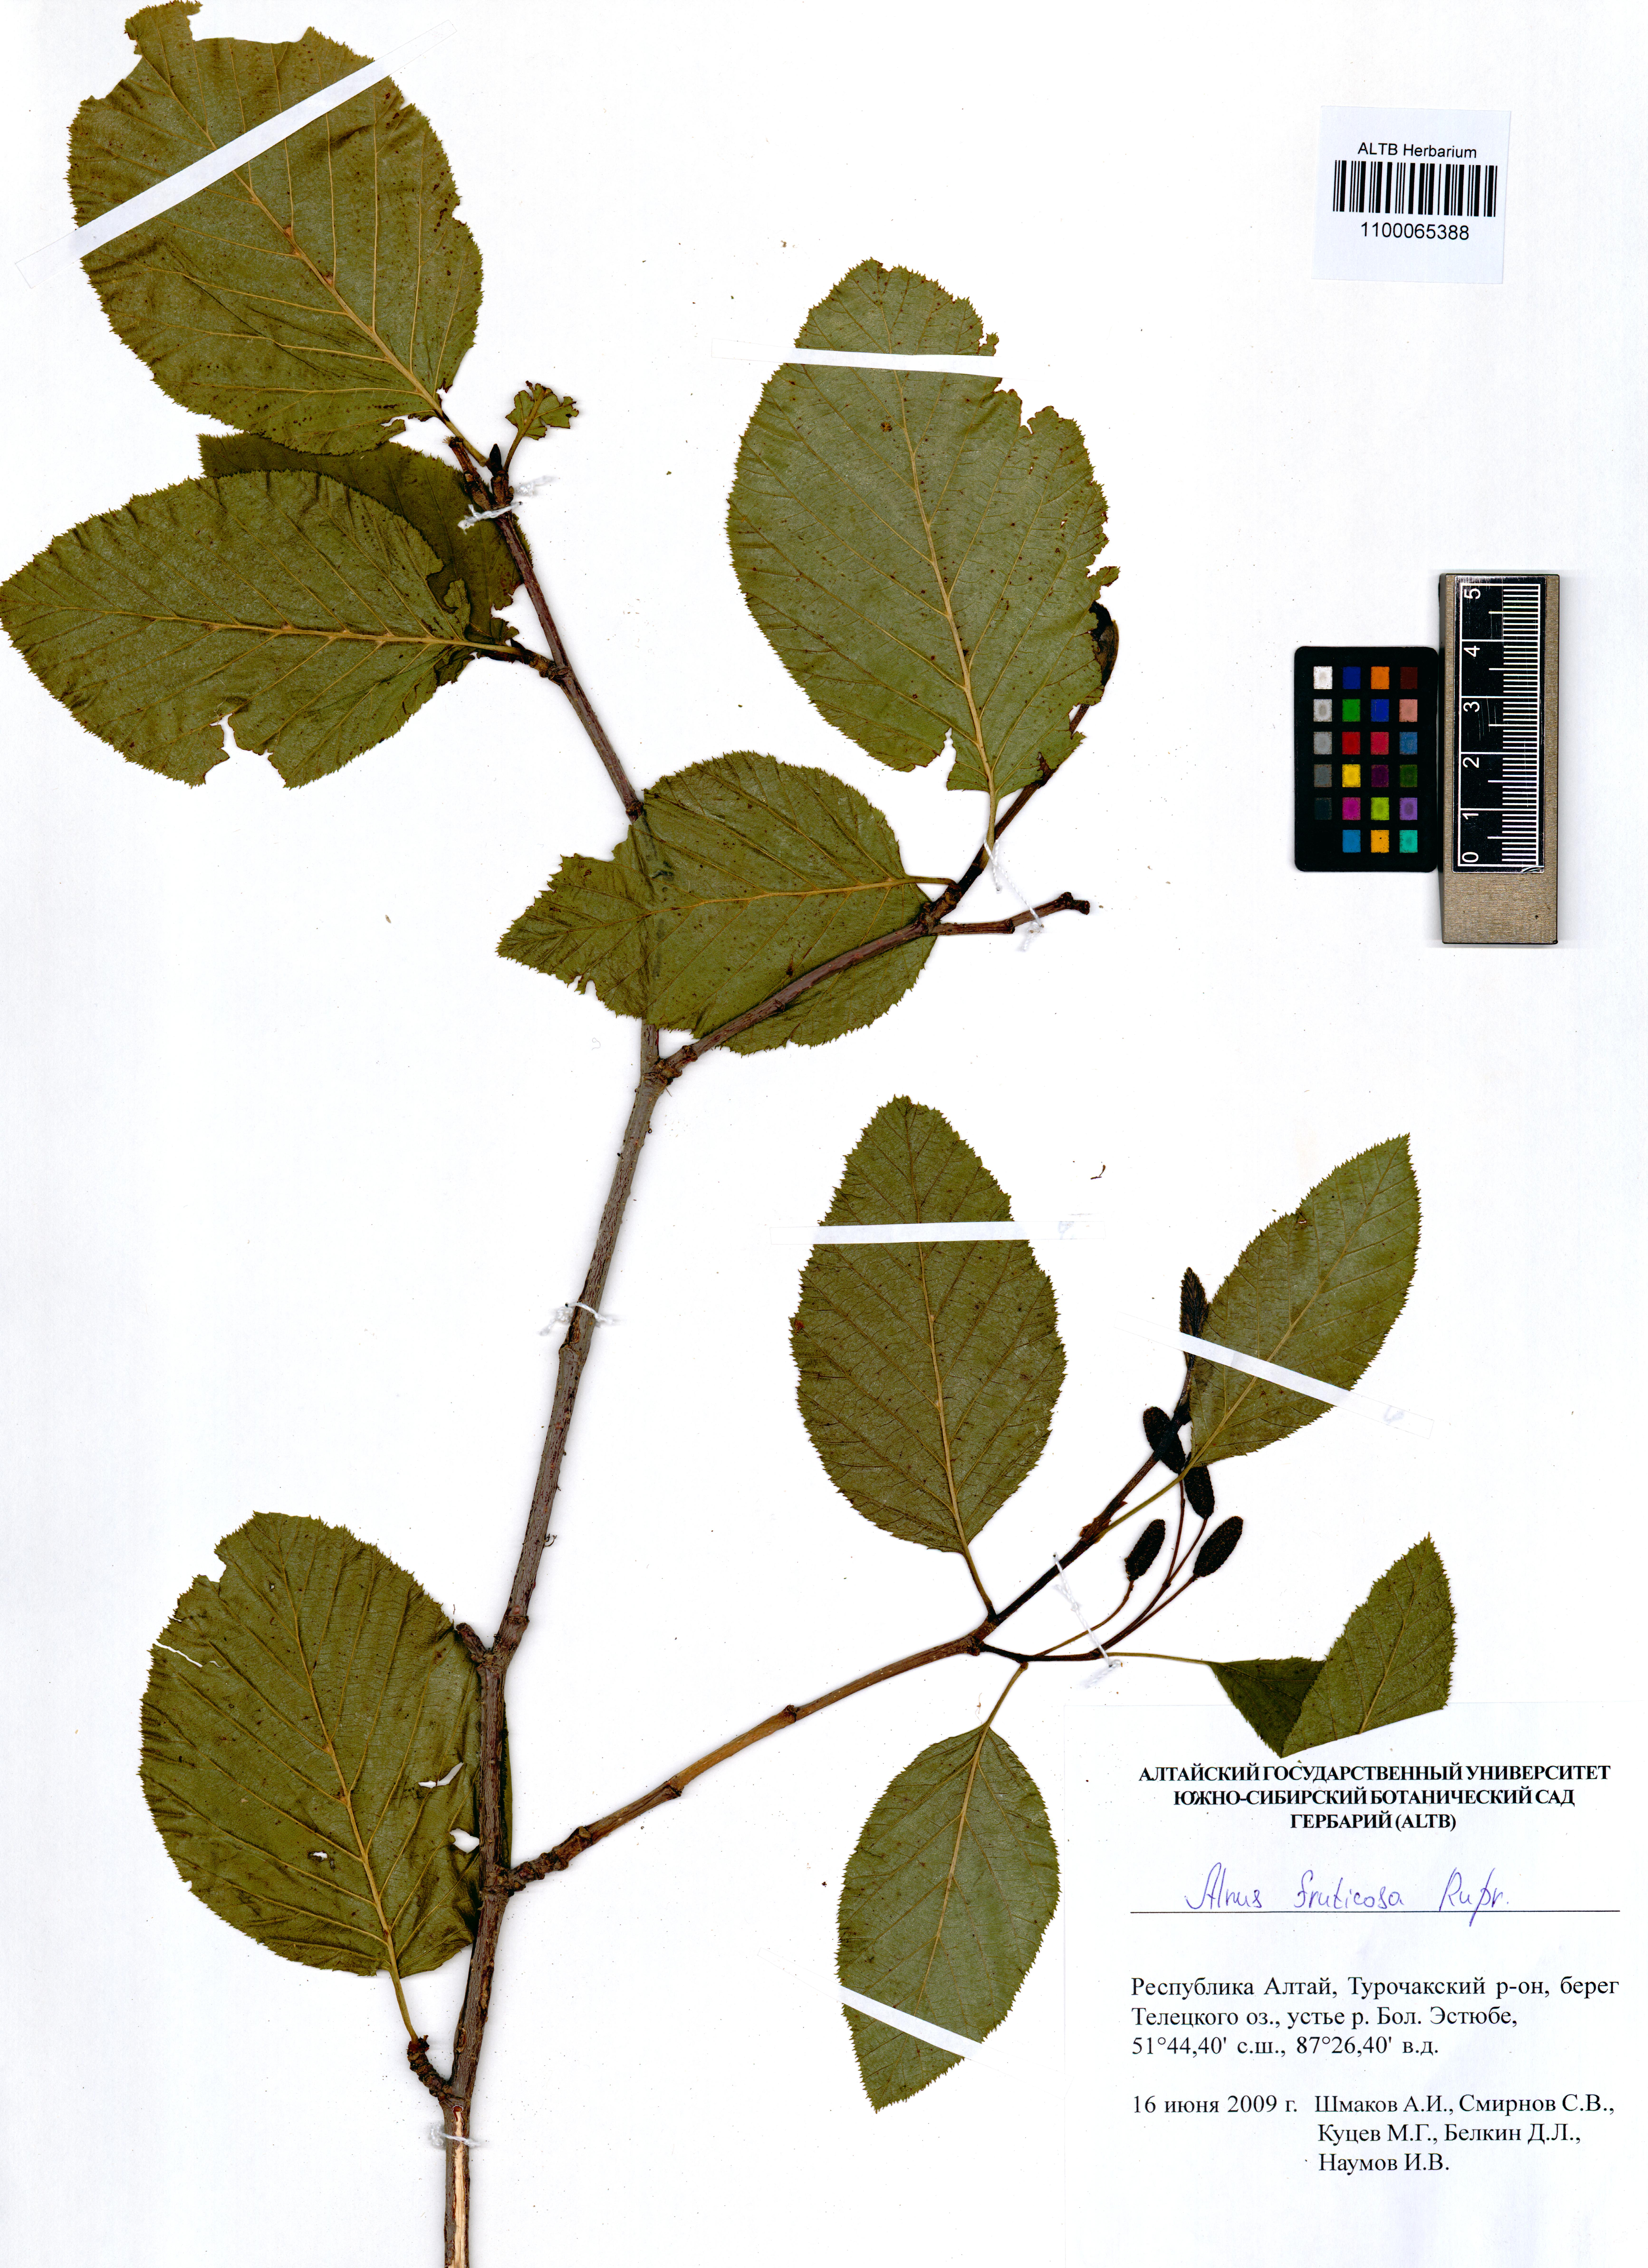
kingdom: Plantae
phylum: Tracheophyta
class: Magnoliopsida
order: Fagales
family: Betulaceae
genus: Alnus
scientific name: Alnus alnobetula
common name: Green alder
